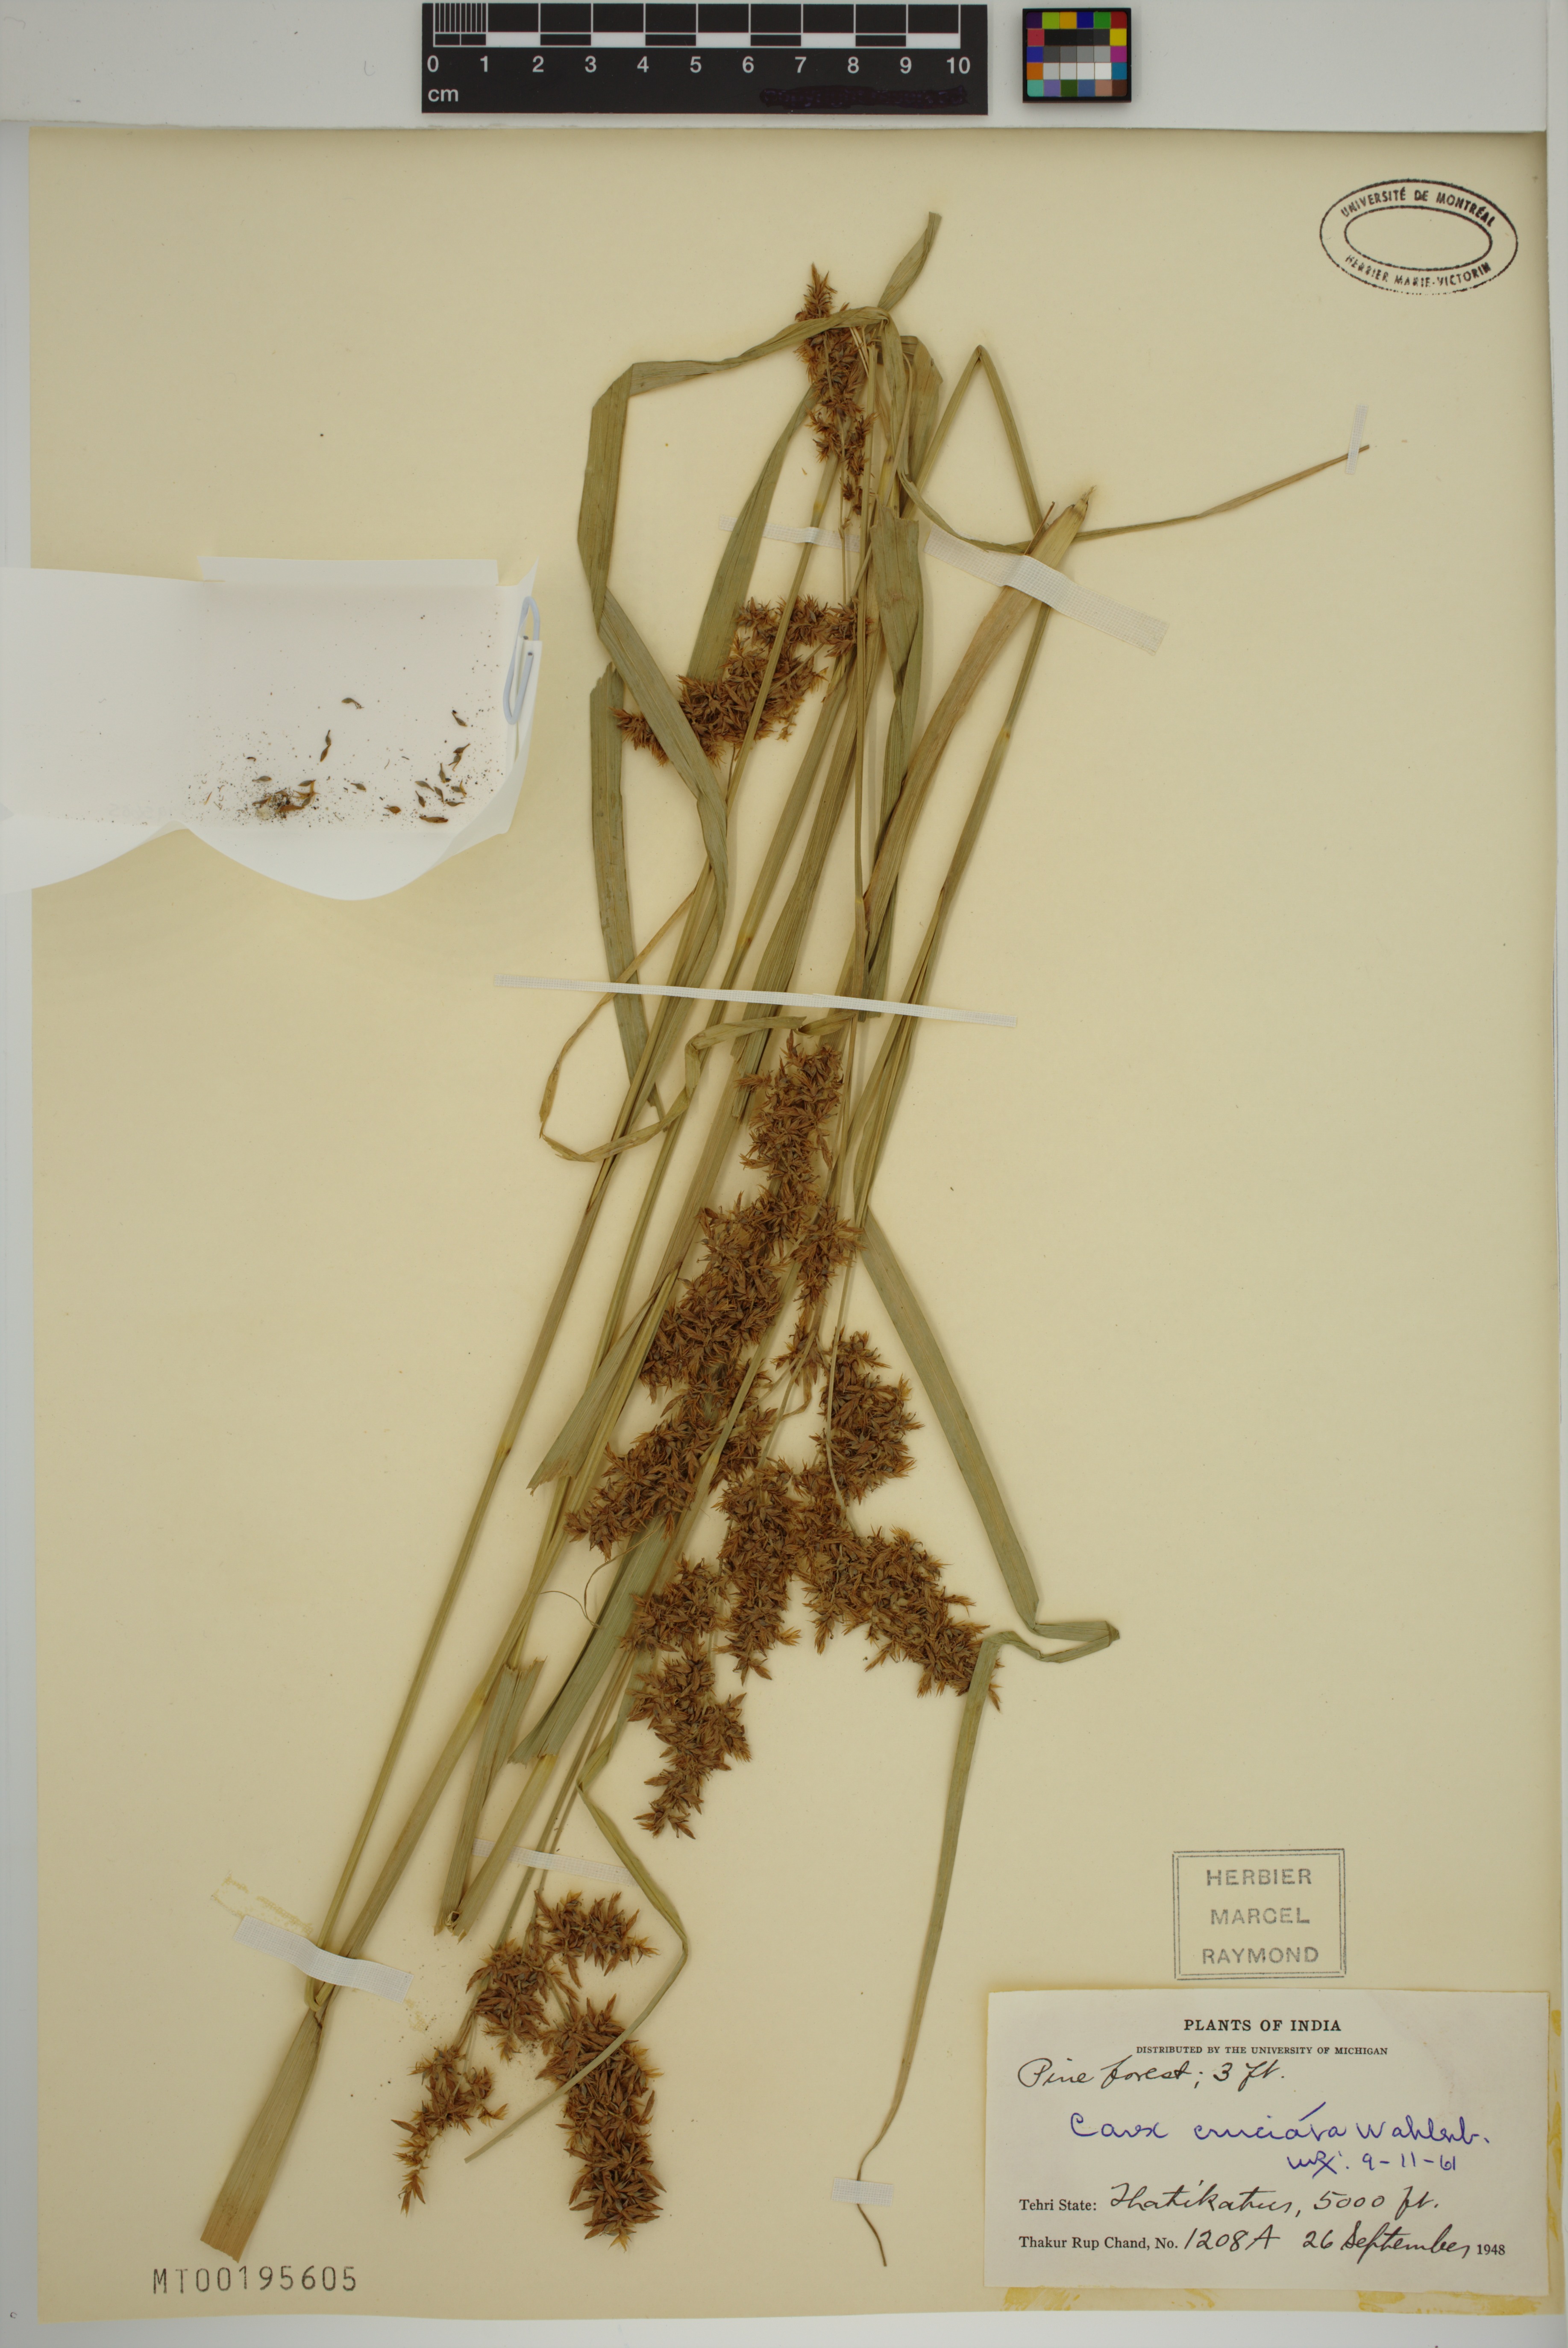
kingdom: Plantae
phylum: Tracheophyta
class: Liliopsida
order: Poales
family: Cyperaceae
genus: Carex
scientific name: Carex cruciata
